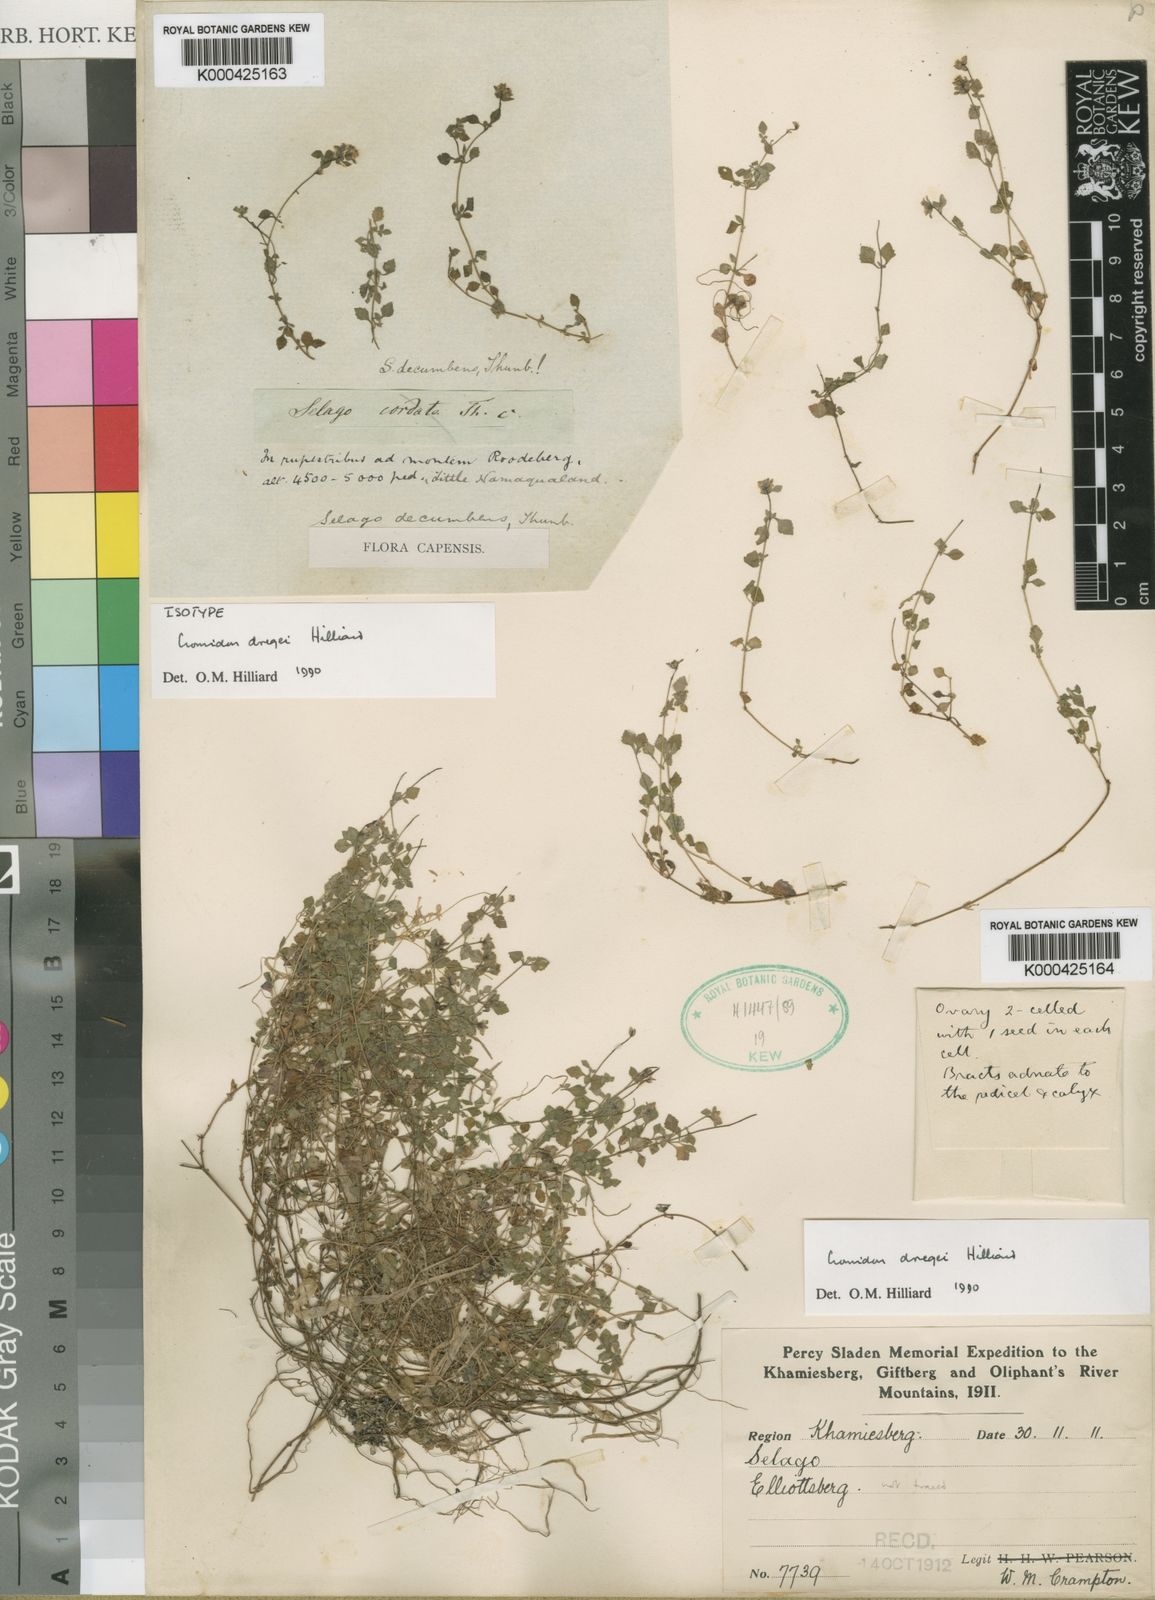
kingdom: Plantae
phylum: Tracheophyta
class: Magnoliopsida
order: Lamiales
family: Scrophulariaceae
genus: Cromidon
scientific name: Cromidon dregei
